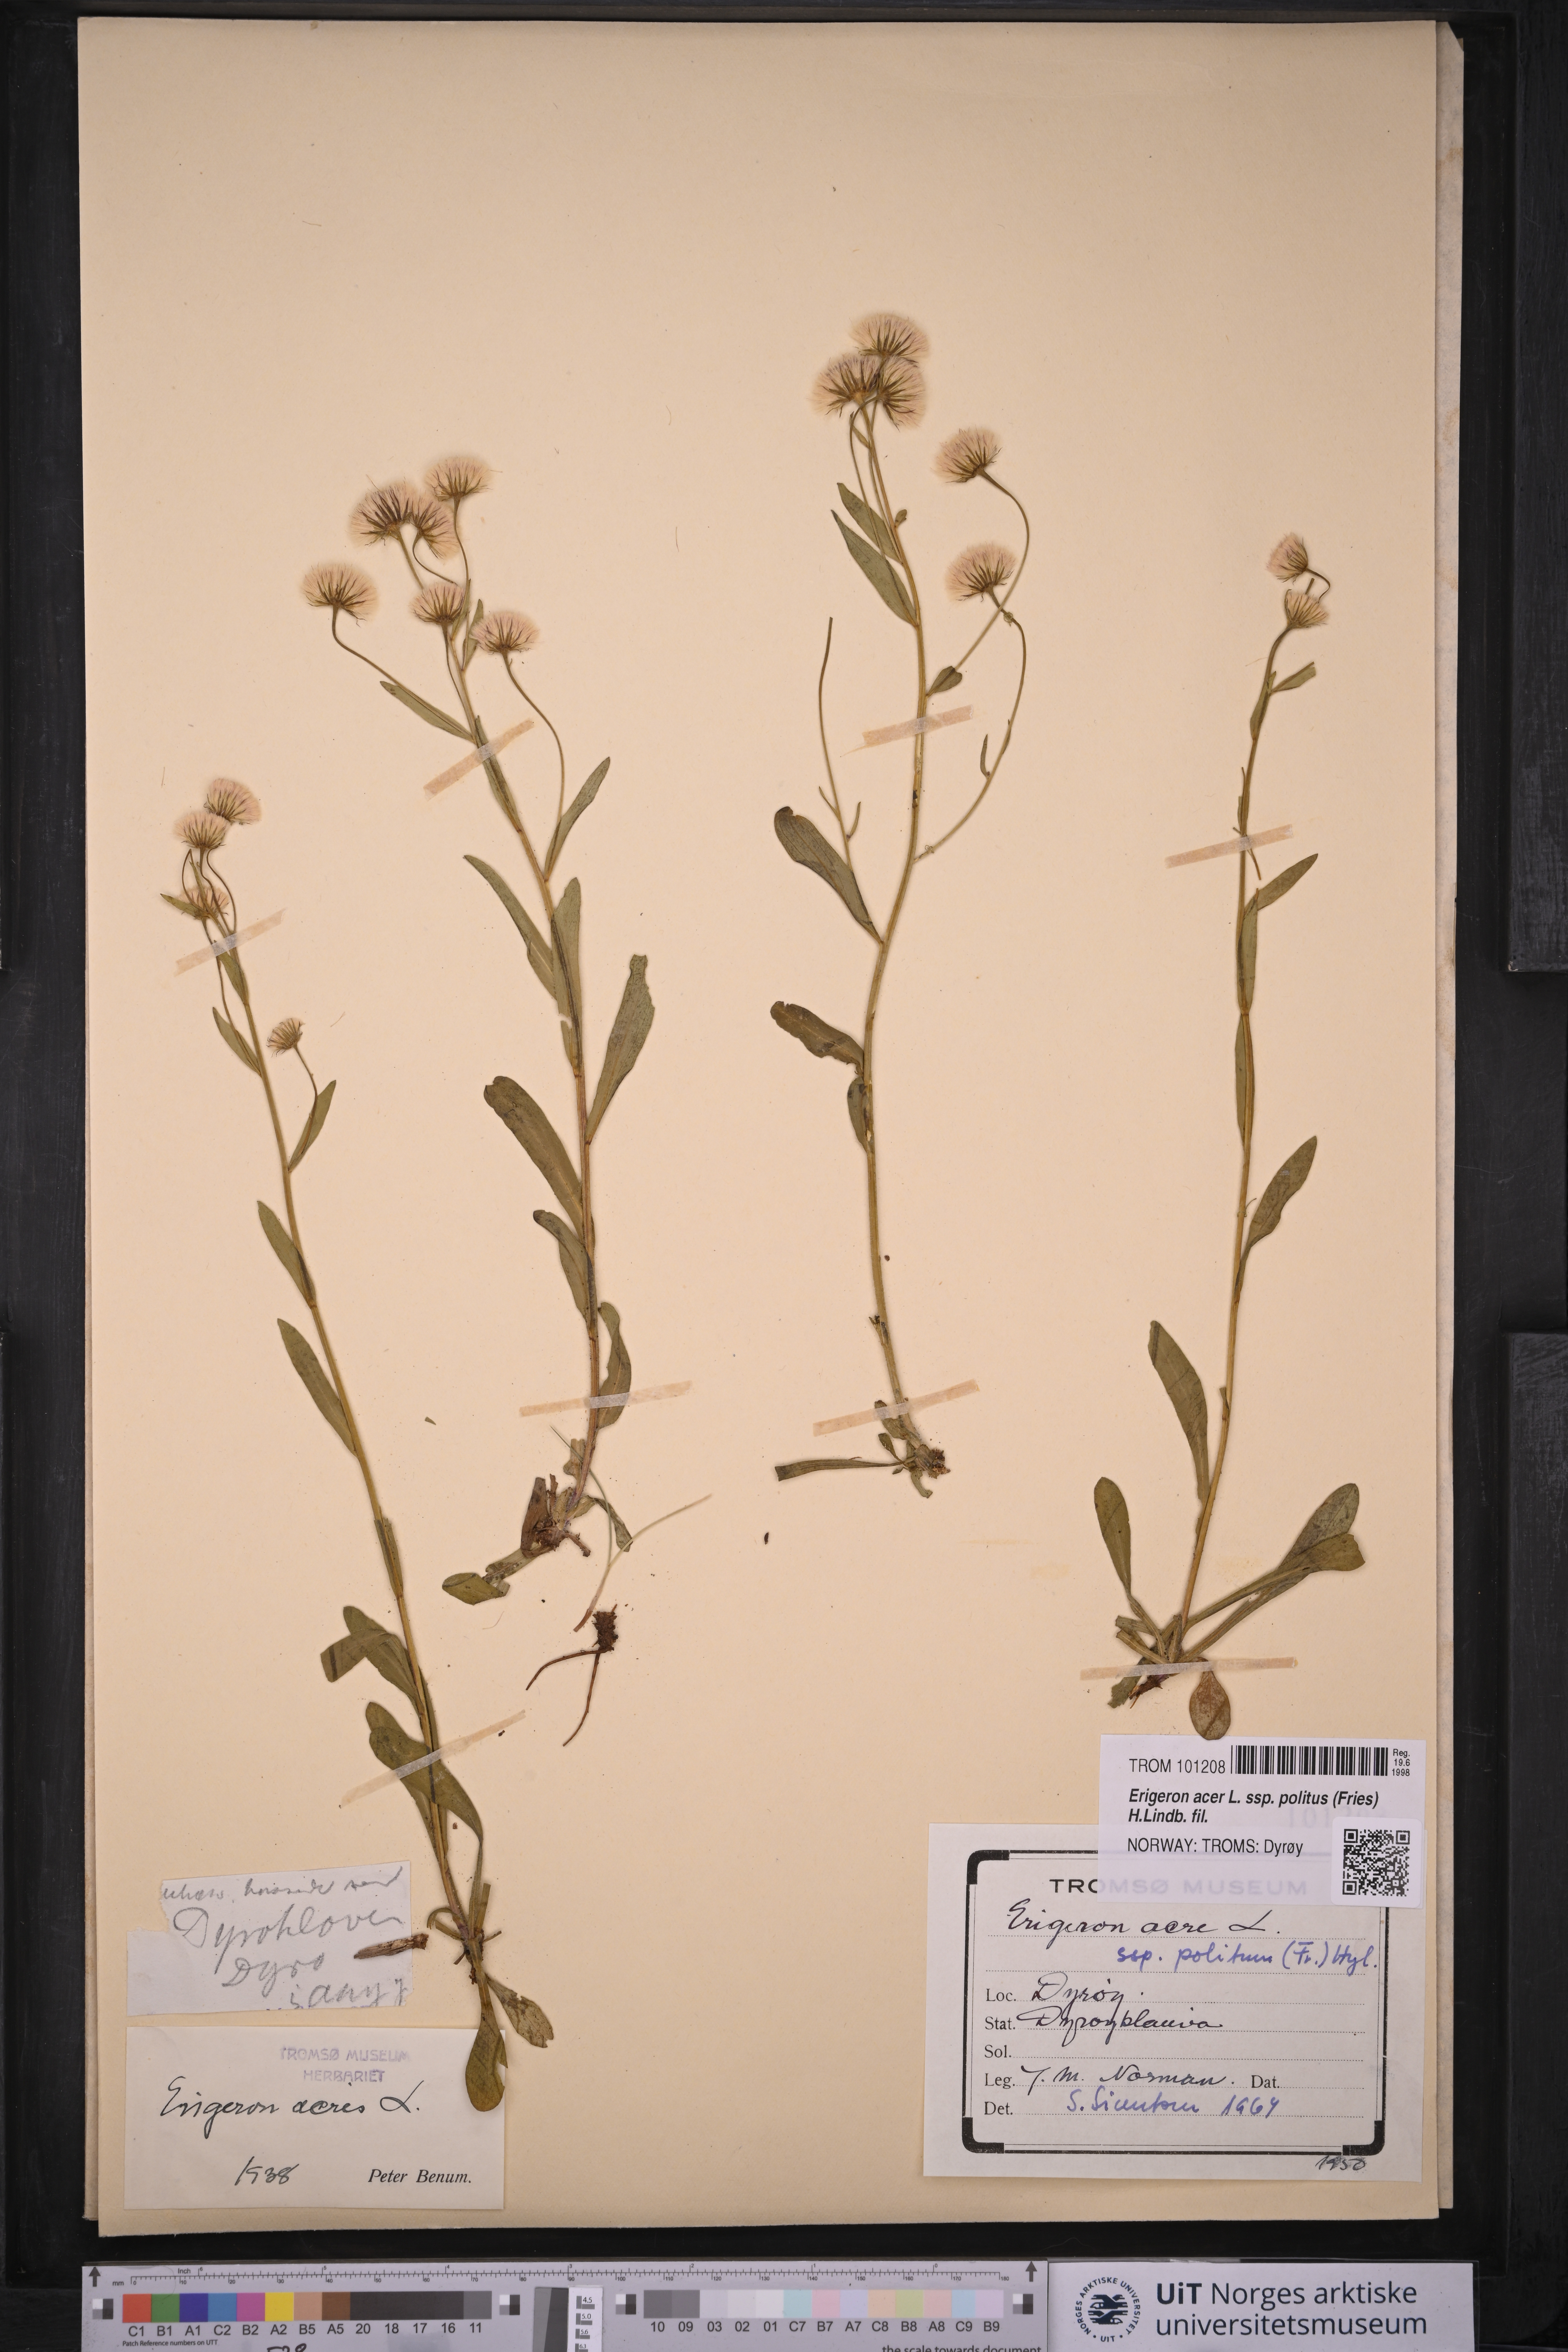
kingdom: Plantae
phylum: Tracheophyta
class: Magnoliopsida
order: Asterales
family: Asteraceae
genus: Erigeron
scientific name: Erigeron politus
